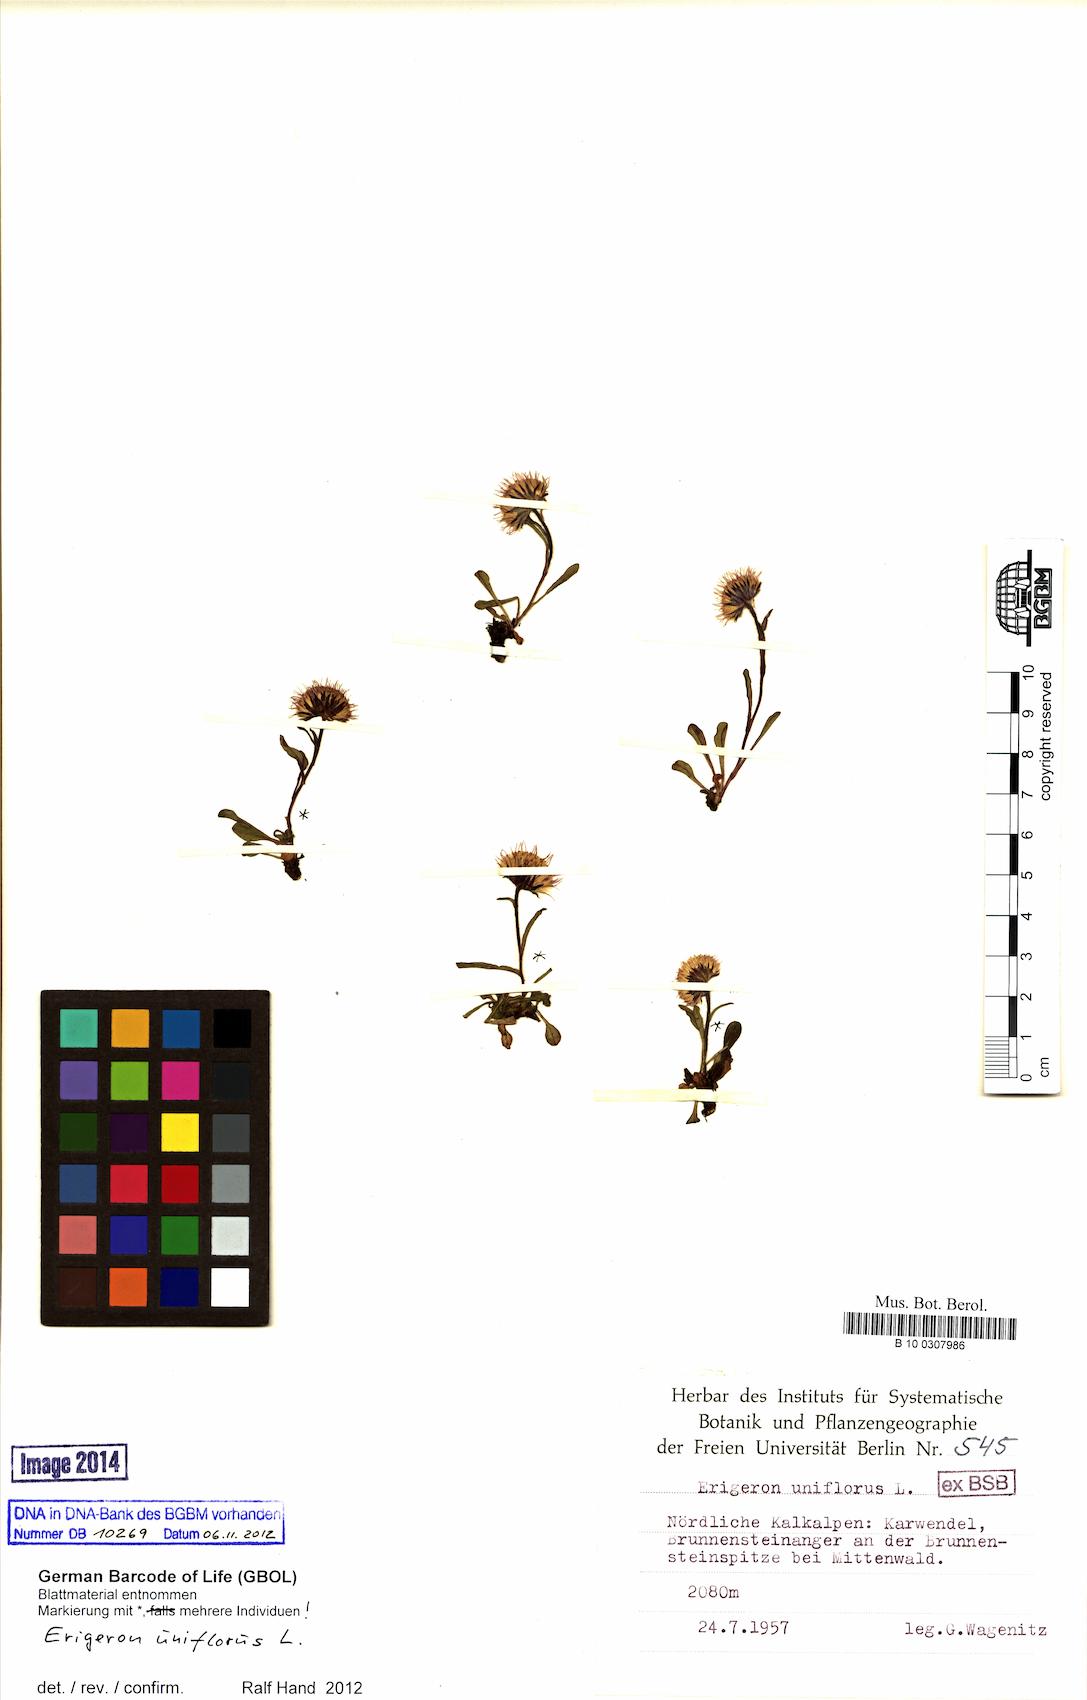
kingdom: Plantae
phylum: Tracheophyta
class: Magnoliopsida
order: Asterales
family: Asteraceae
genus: Erigeron
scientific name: Erigeron uniflorus
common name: Northern daisy
